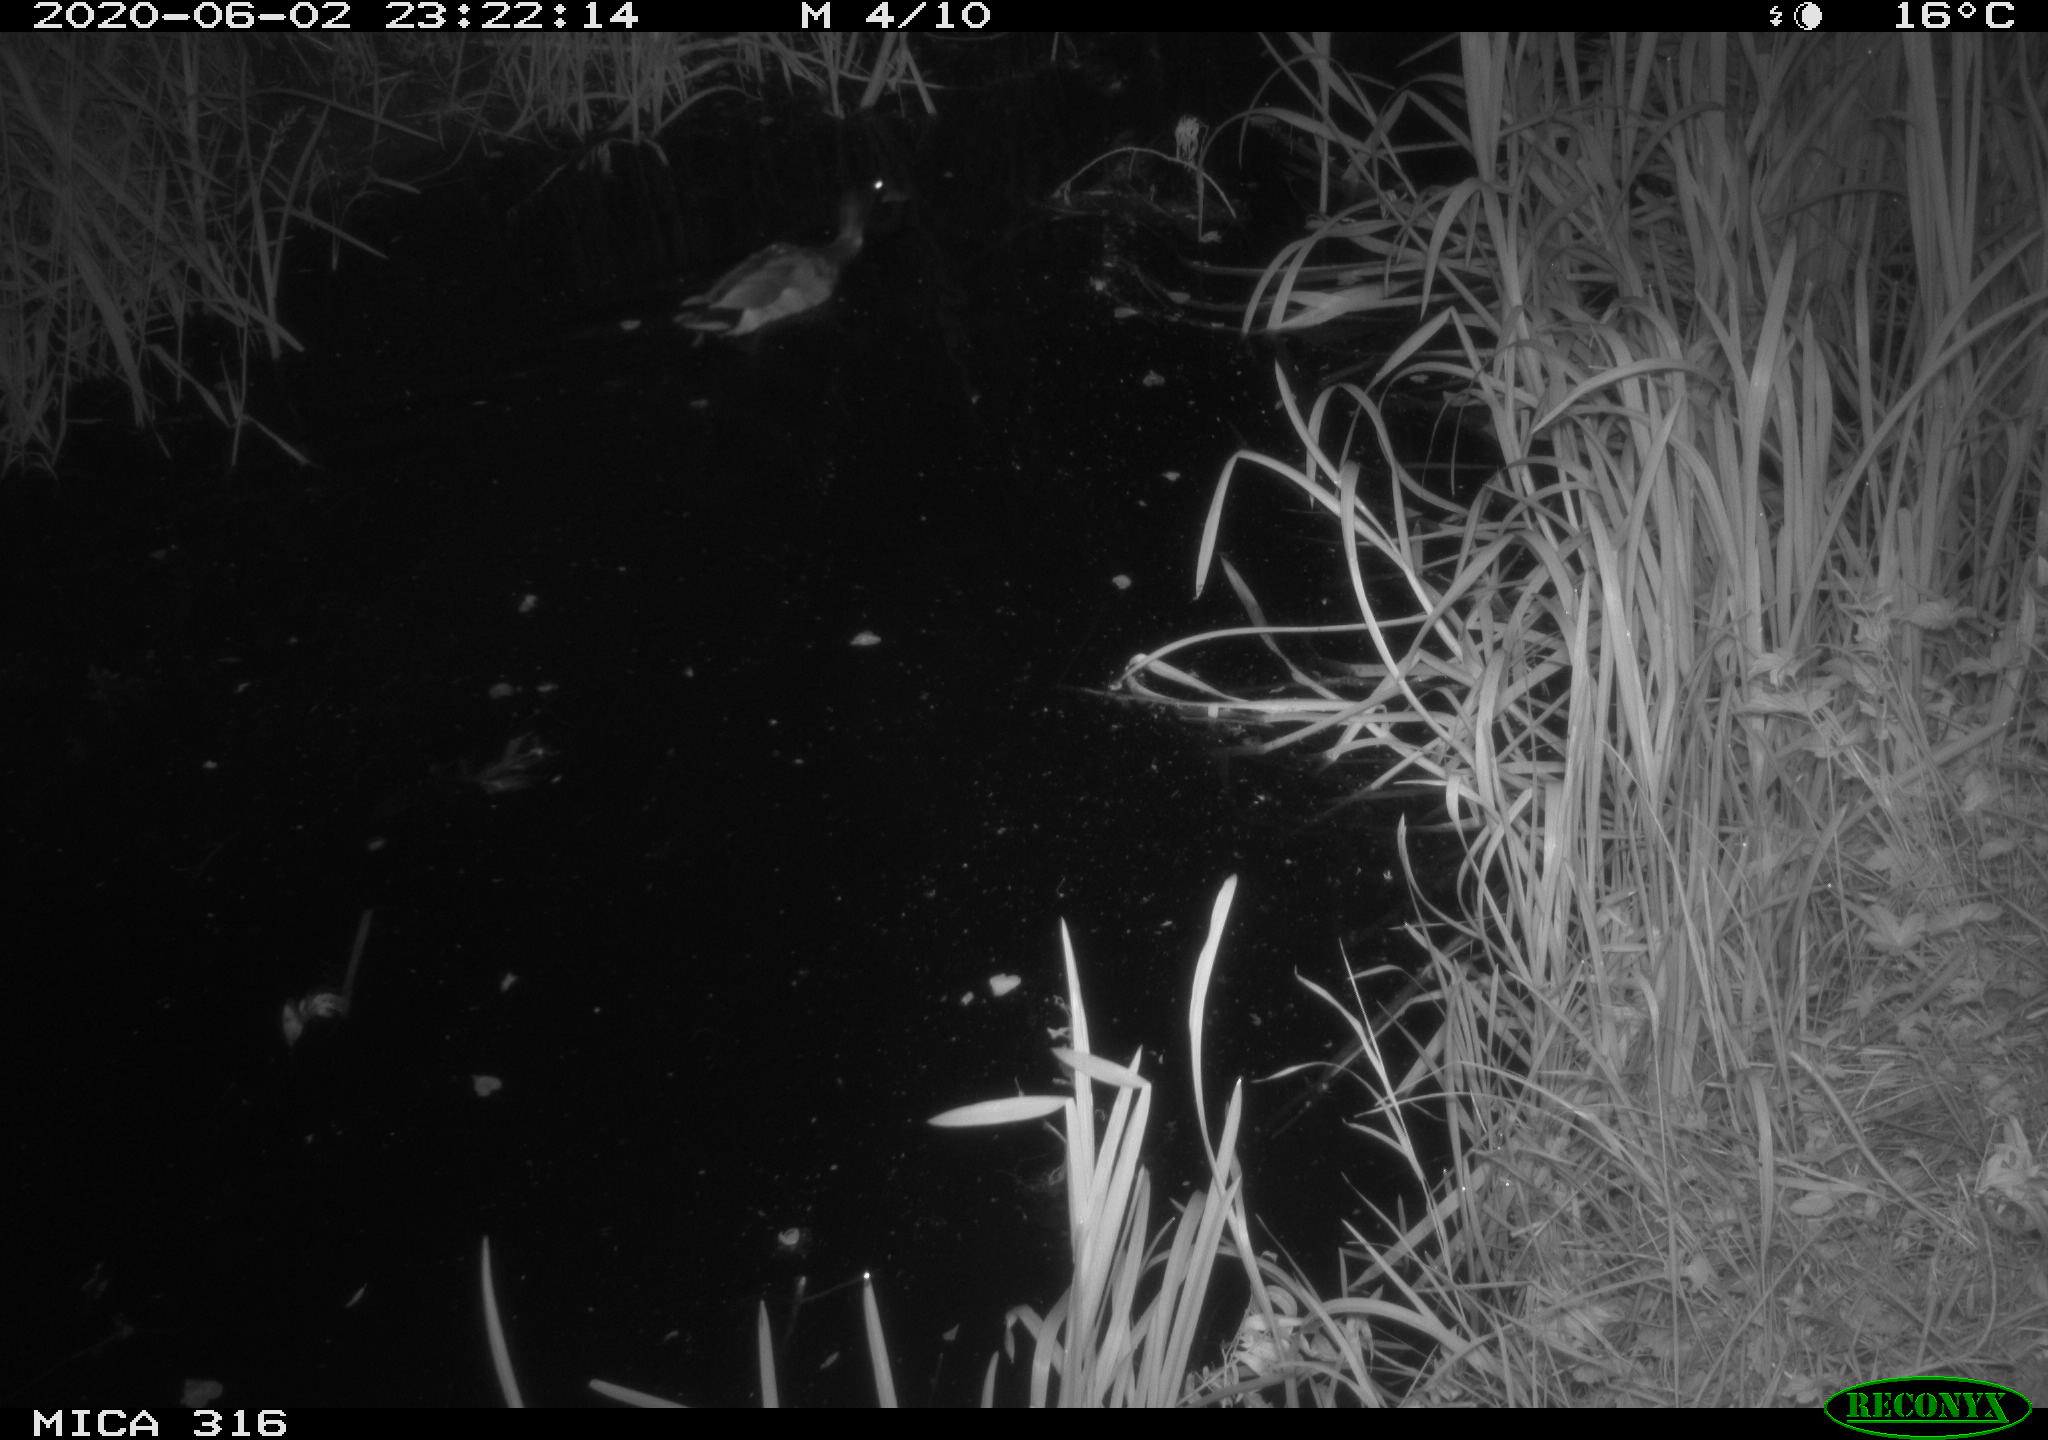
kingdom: Animalia
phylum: Chordata
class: Aves
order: Anseriformes
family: Anatidae
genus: Anas
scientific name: Anas platyrhynchos
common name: Mallard
